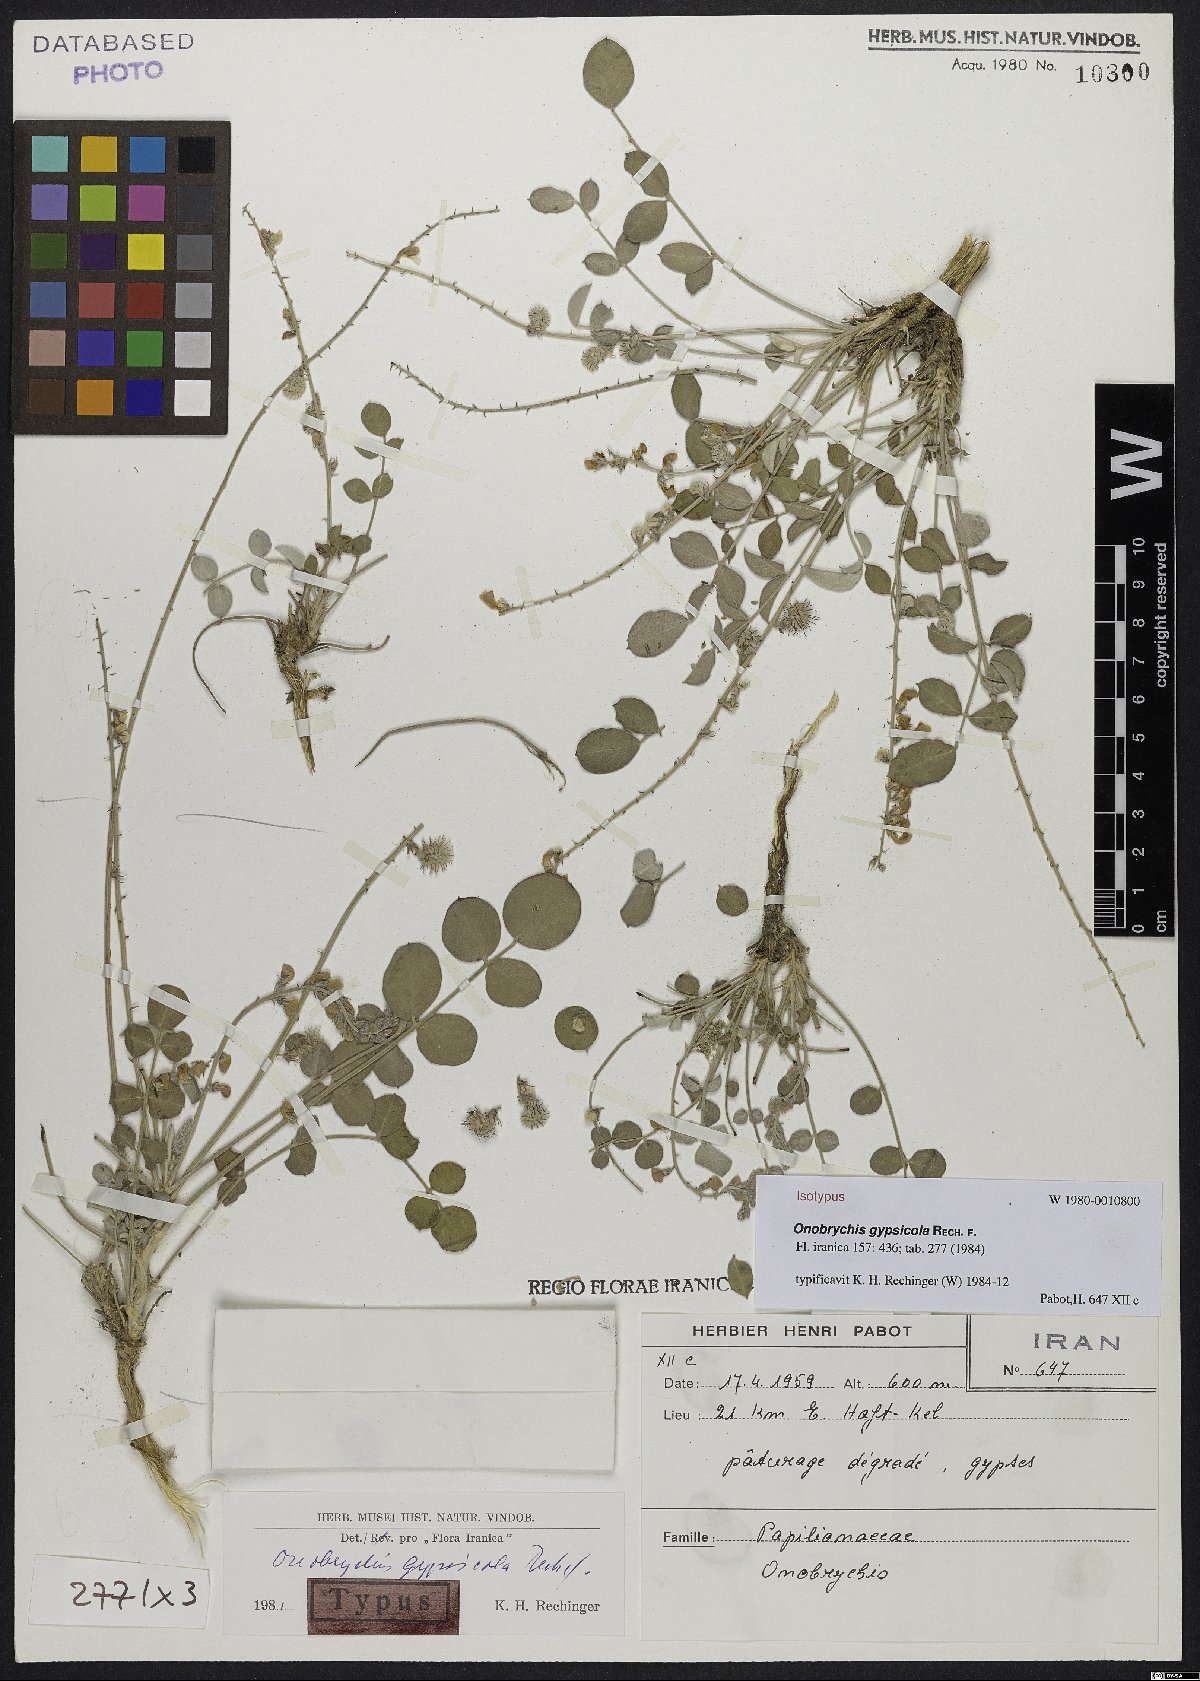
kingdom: Plantae
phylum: Tracheophyta
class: Magnoliopsida
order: Fabales
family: Fabaceae
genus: Onobrychis
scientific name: Onobrychis gypsicola
